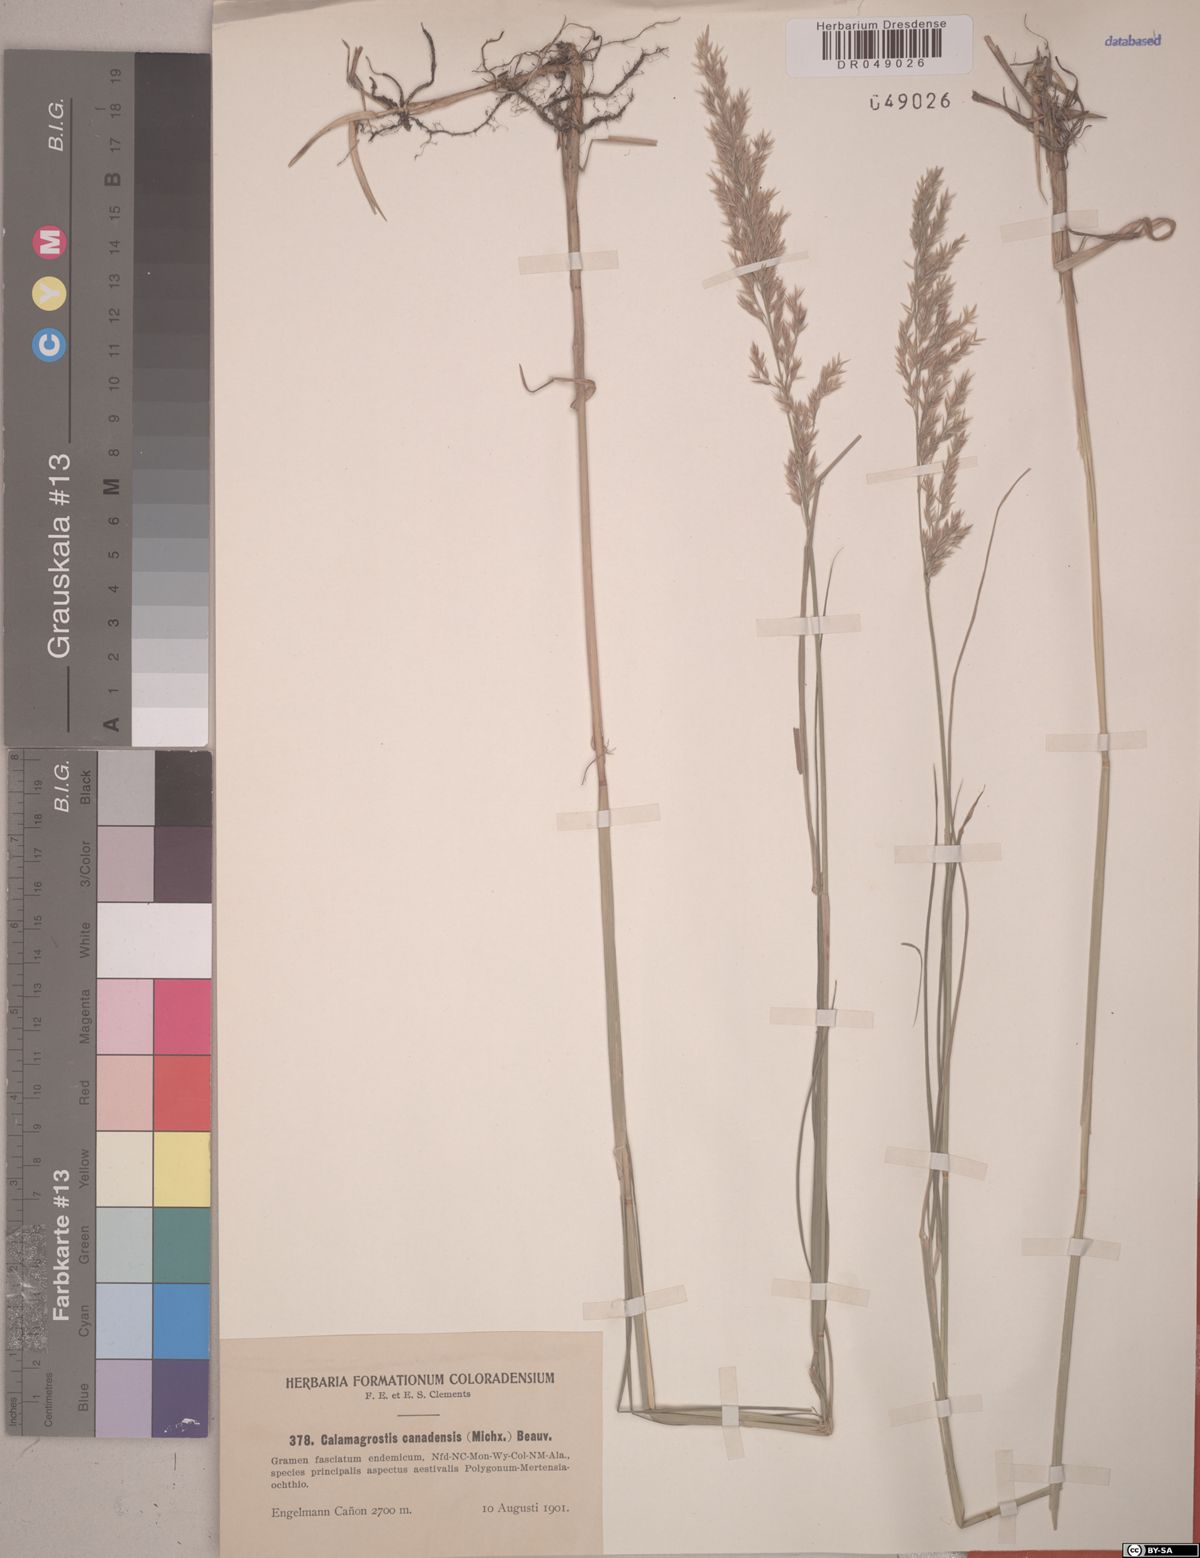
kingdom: Plantae
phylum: Tracheophyta
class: Liliopsida
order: Poales
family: Poaceae
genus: Calamagrostis
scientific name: Calamagrostis canadensis
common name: Canada bluejoint
